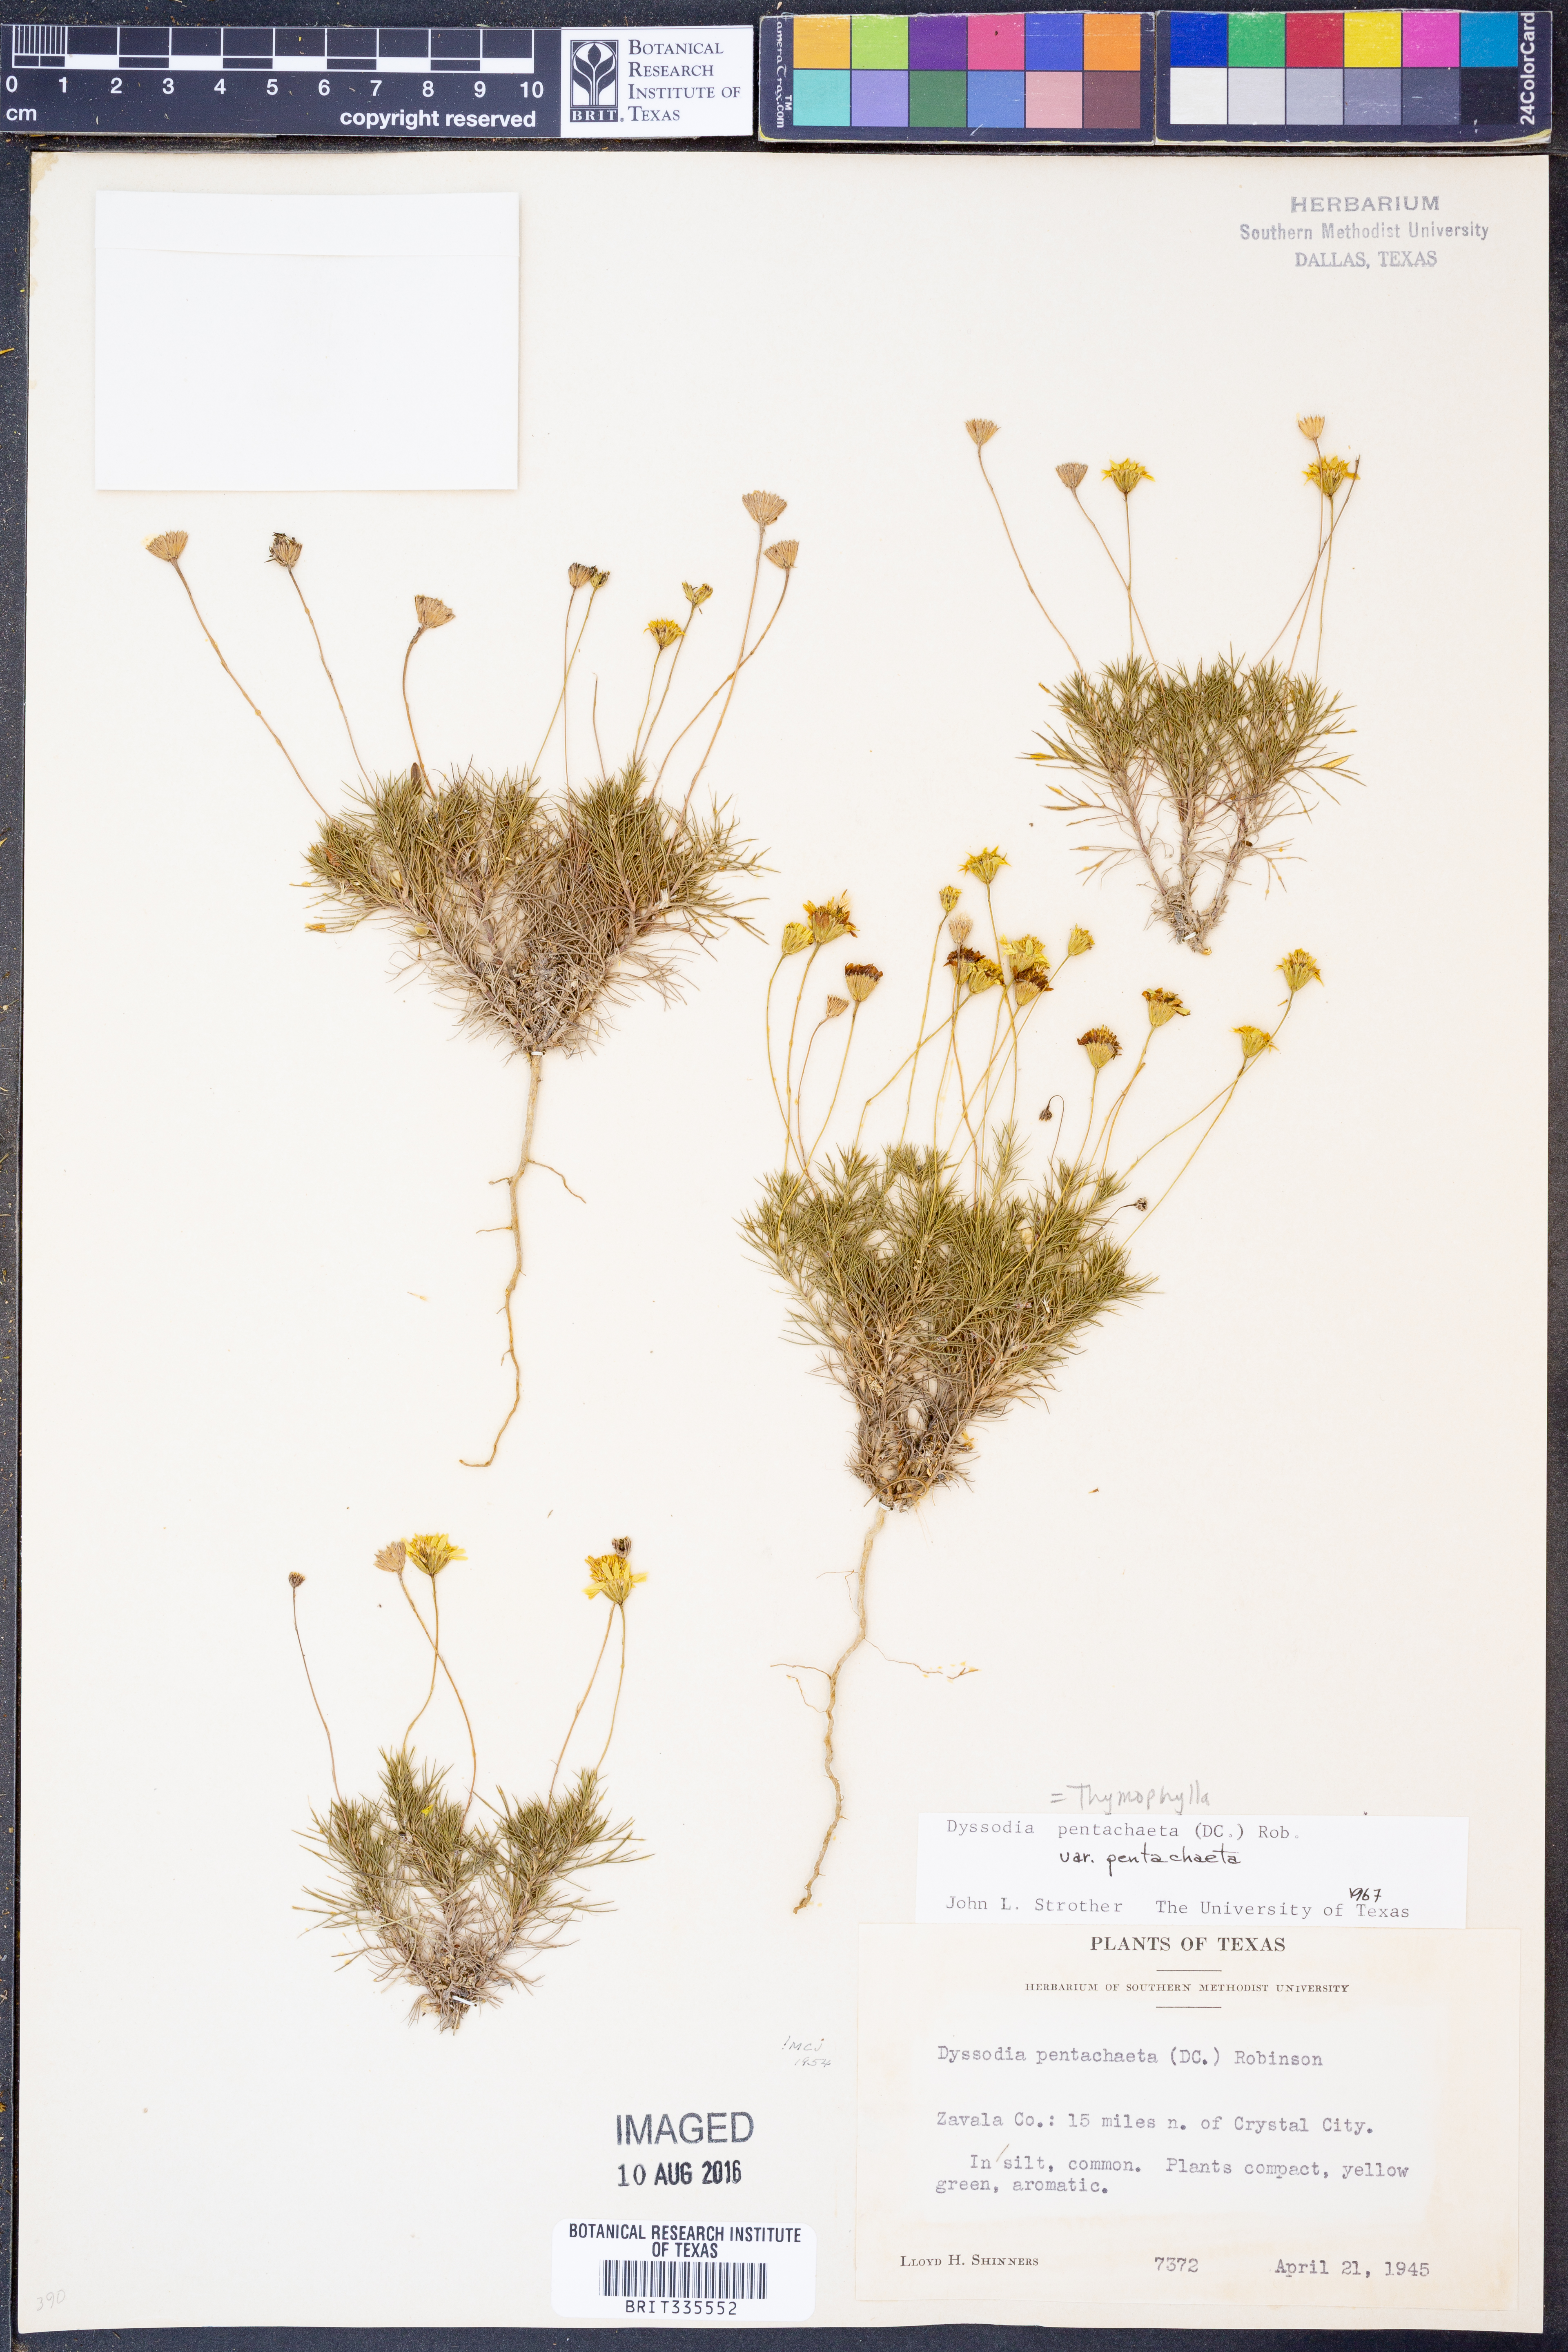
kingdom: Plantae
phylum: Tracheophyta
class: Magnoliopsida
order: Asterales
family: Asteraceae
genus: Thymophylla
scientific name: Thymophylla pentachaeta
